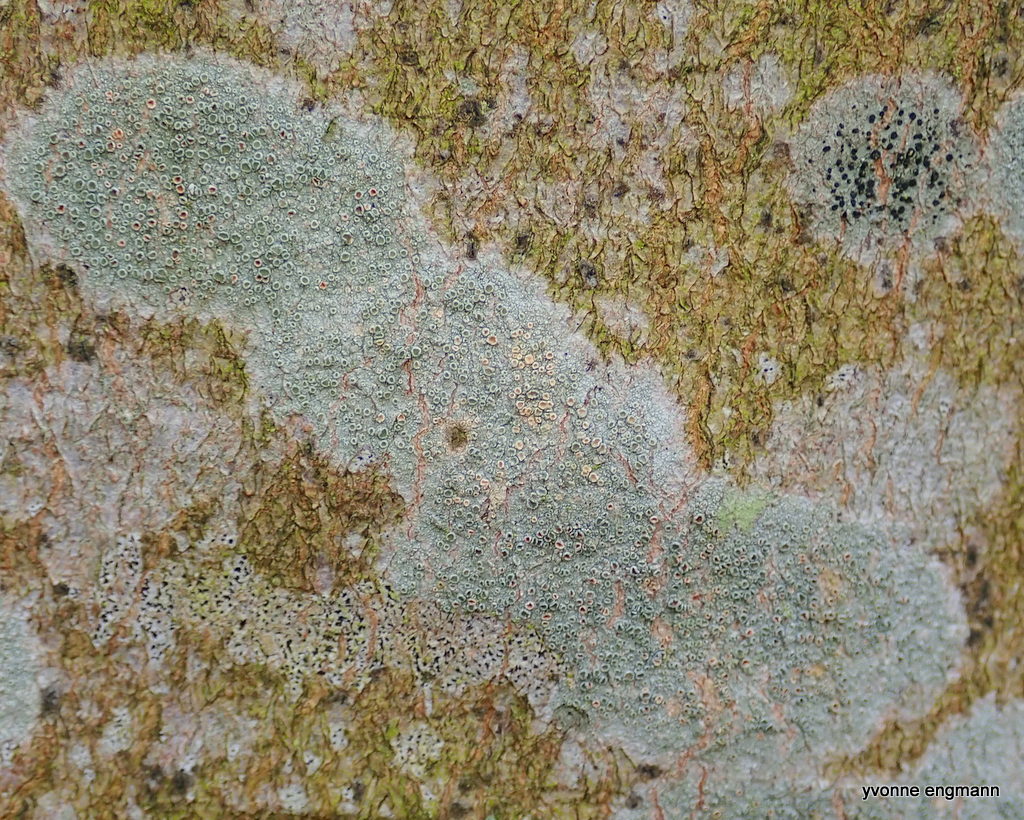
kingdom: Fungi
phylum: Ascomycota
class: Lecanoromycetes
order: Lecanorales
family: Lecanoraceae
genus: Lecanora
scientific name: Lecanora chlarotera
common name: brun kantskivelav
